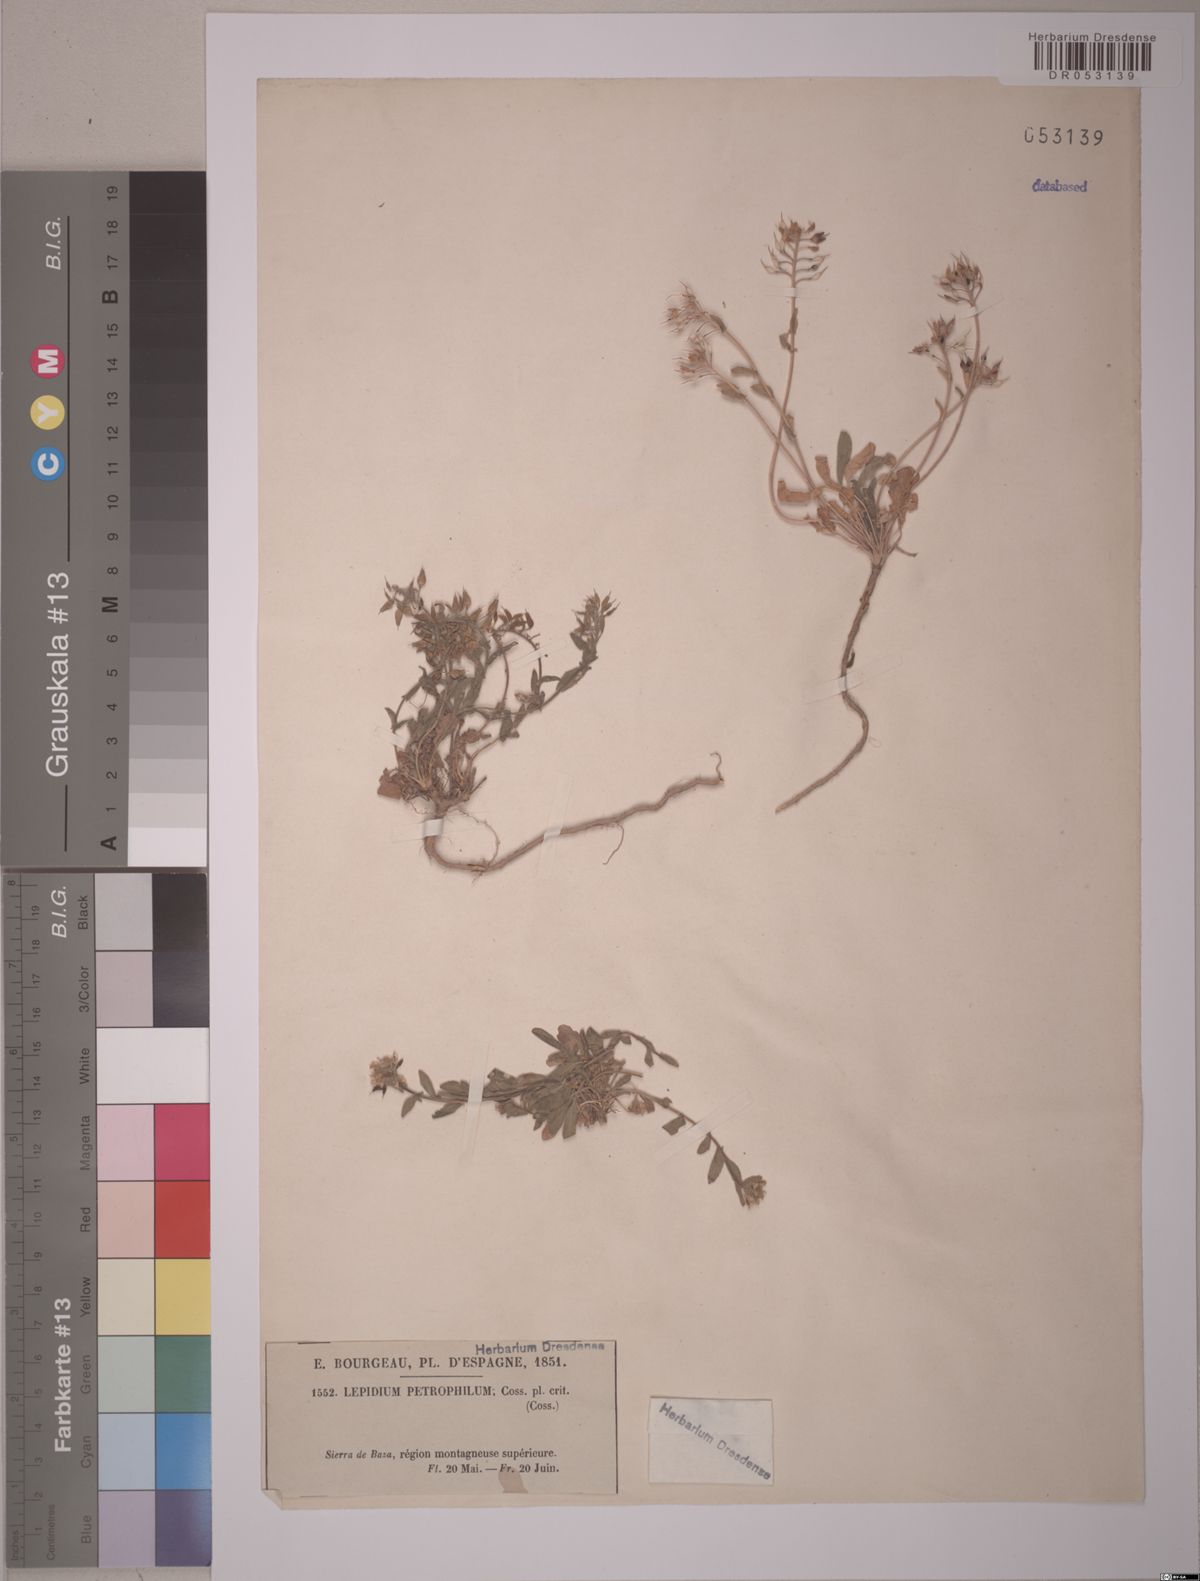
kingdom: Plantae
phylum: Tracheophyta
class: Magnoliopsida
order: Brassicales
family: Brassicaceae
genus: Lepidium
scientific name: Lepidium hirtum
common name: Mediterranean pepperweed
